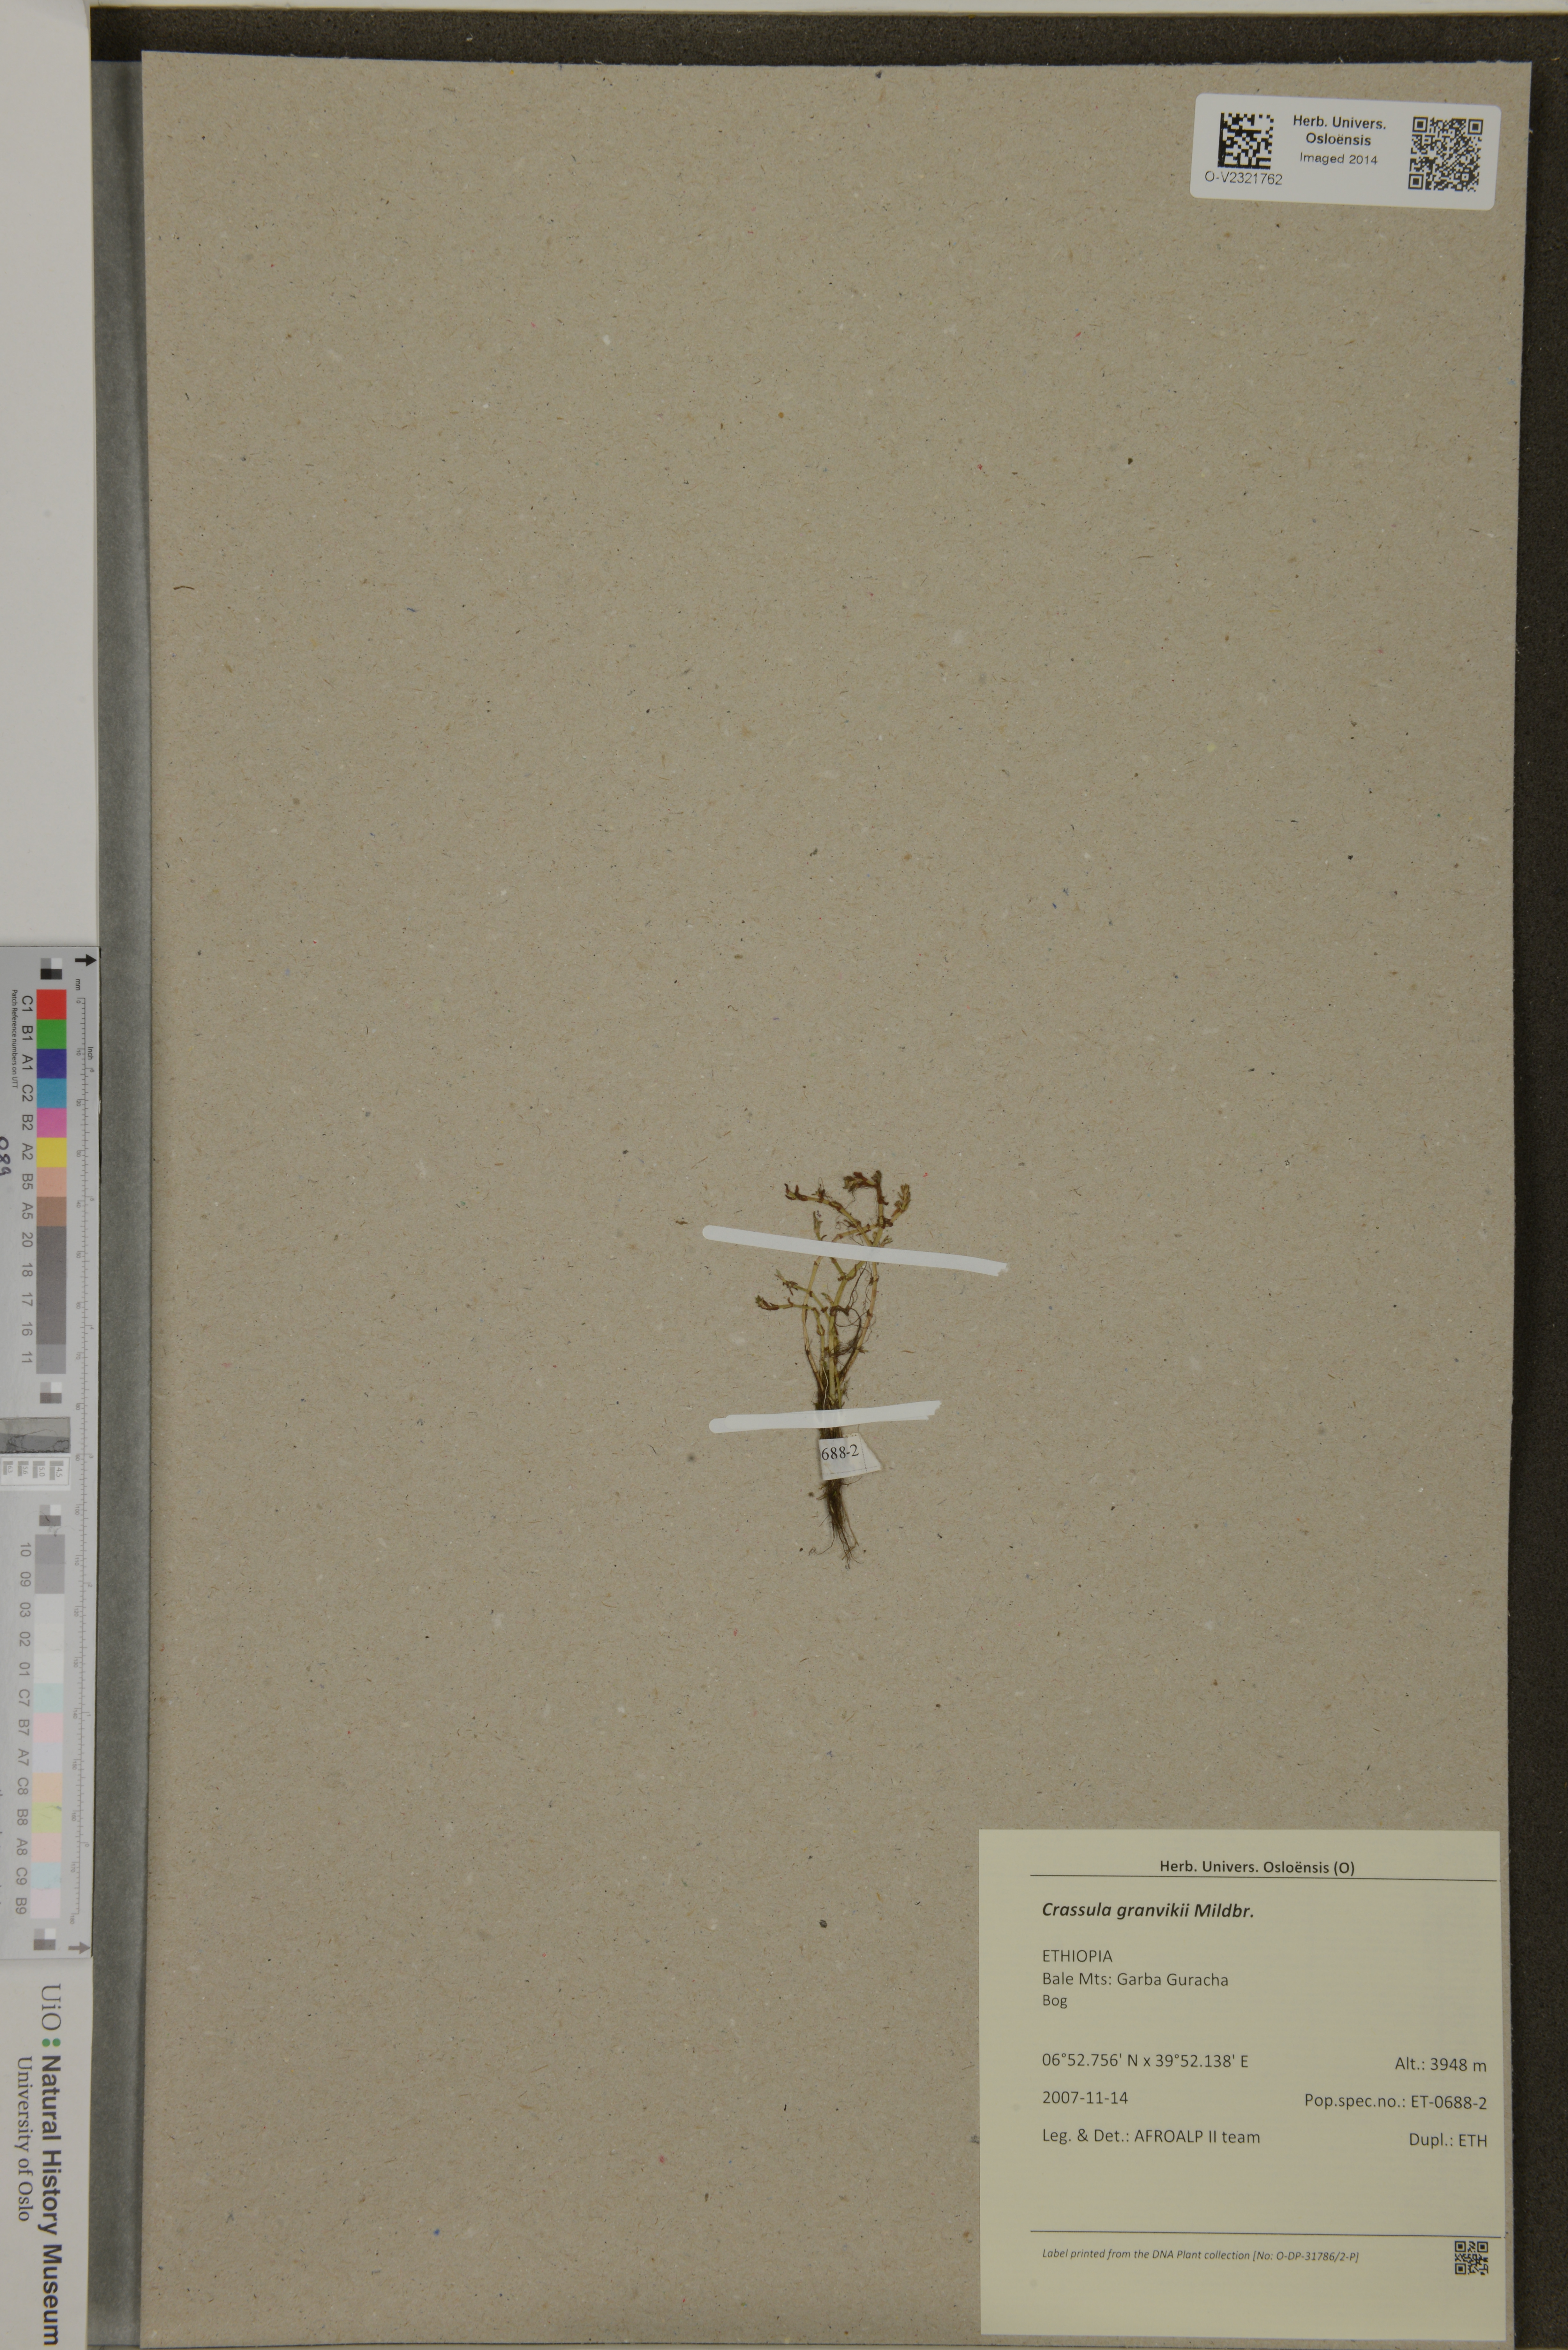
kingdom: Plantae
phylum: Tracheophyta
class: Magnoliopsida
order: Saxifragales
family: Crassulaceae
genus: Crassula
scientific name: Crassula granvikii
